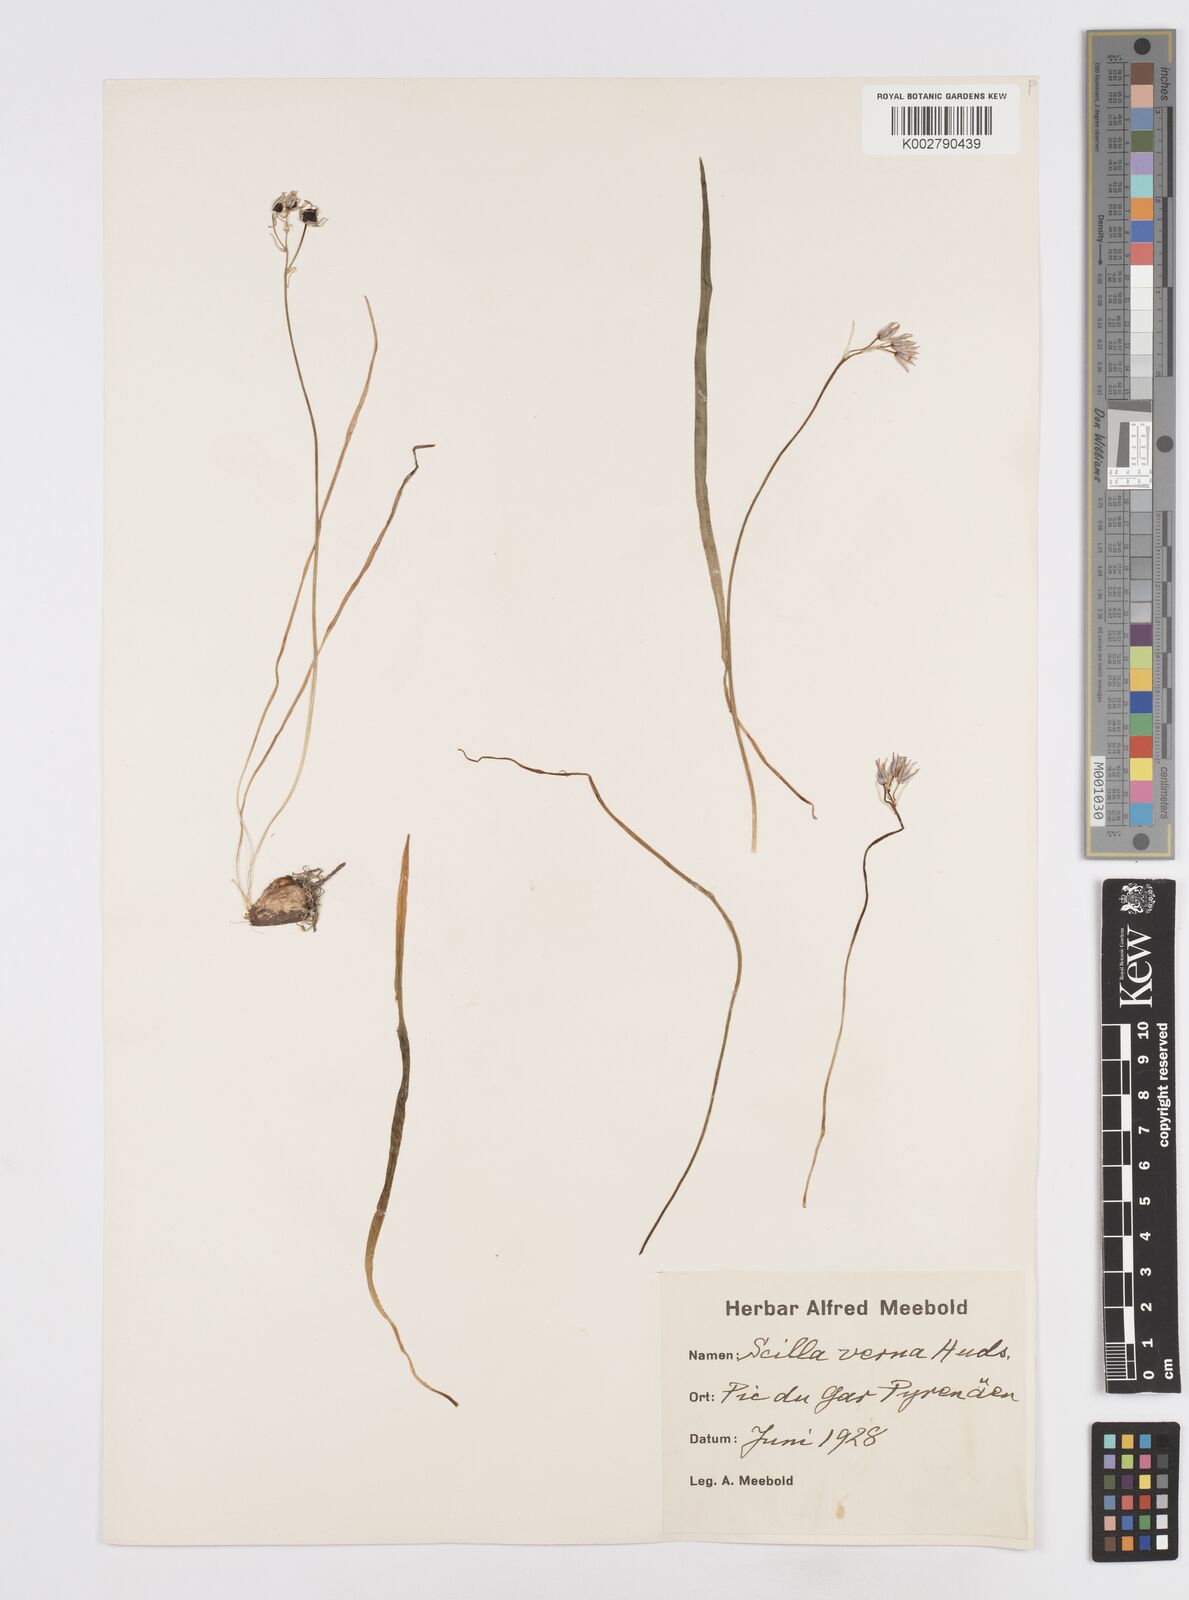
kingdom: Plantae
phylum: Tracheophyta
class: Liliopsida
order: Asparagales
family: Asparagaceae
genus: Scilla
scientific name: Scilla verna
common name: Spring squill
